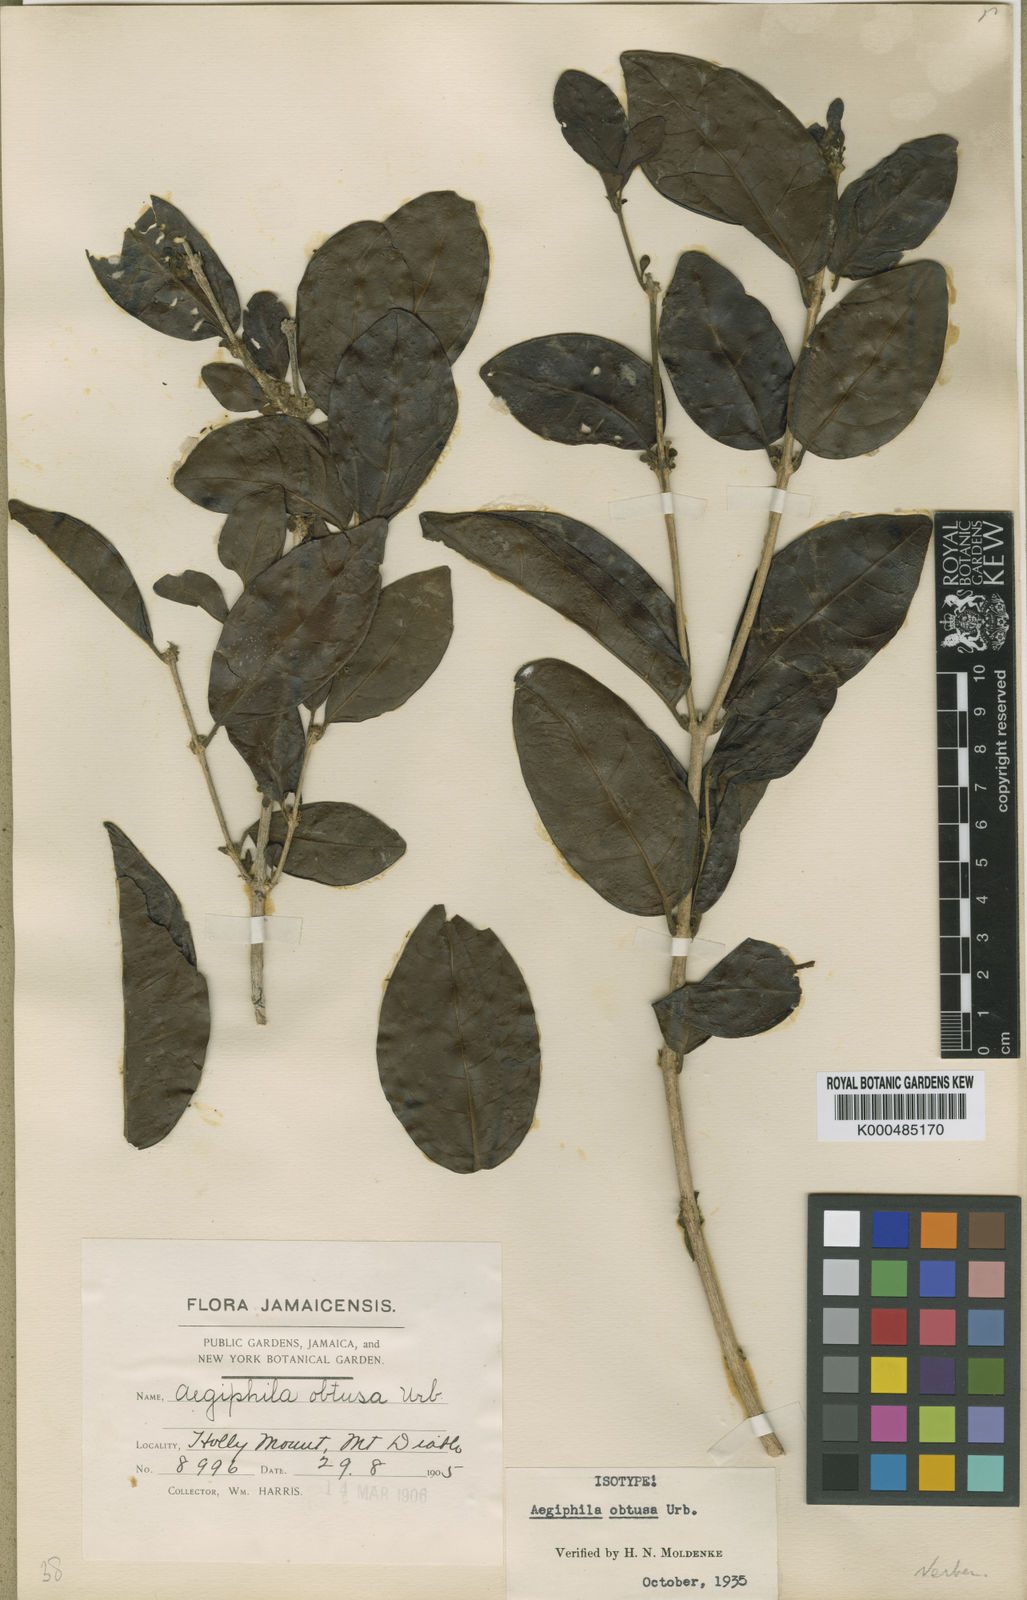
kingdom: Plantae
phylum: Tracheophyta
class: Magnoliopsida
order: Lamiales
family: Lamiaceae
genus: Aegiphila
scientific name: Aegiphila obtusa
